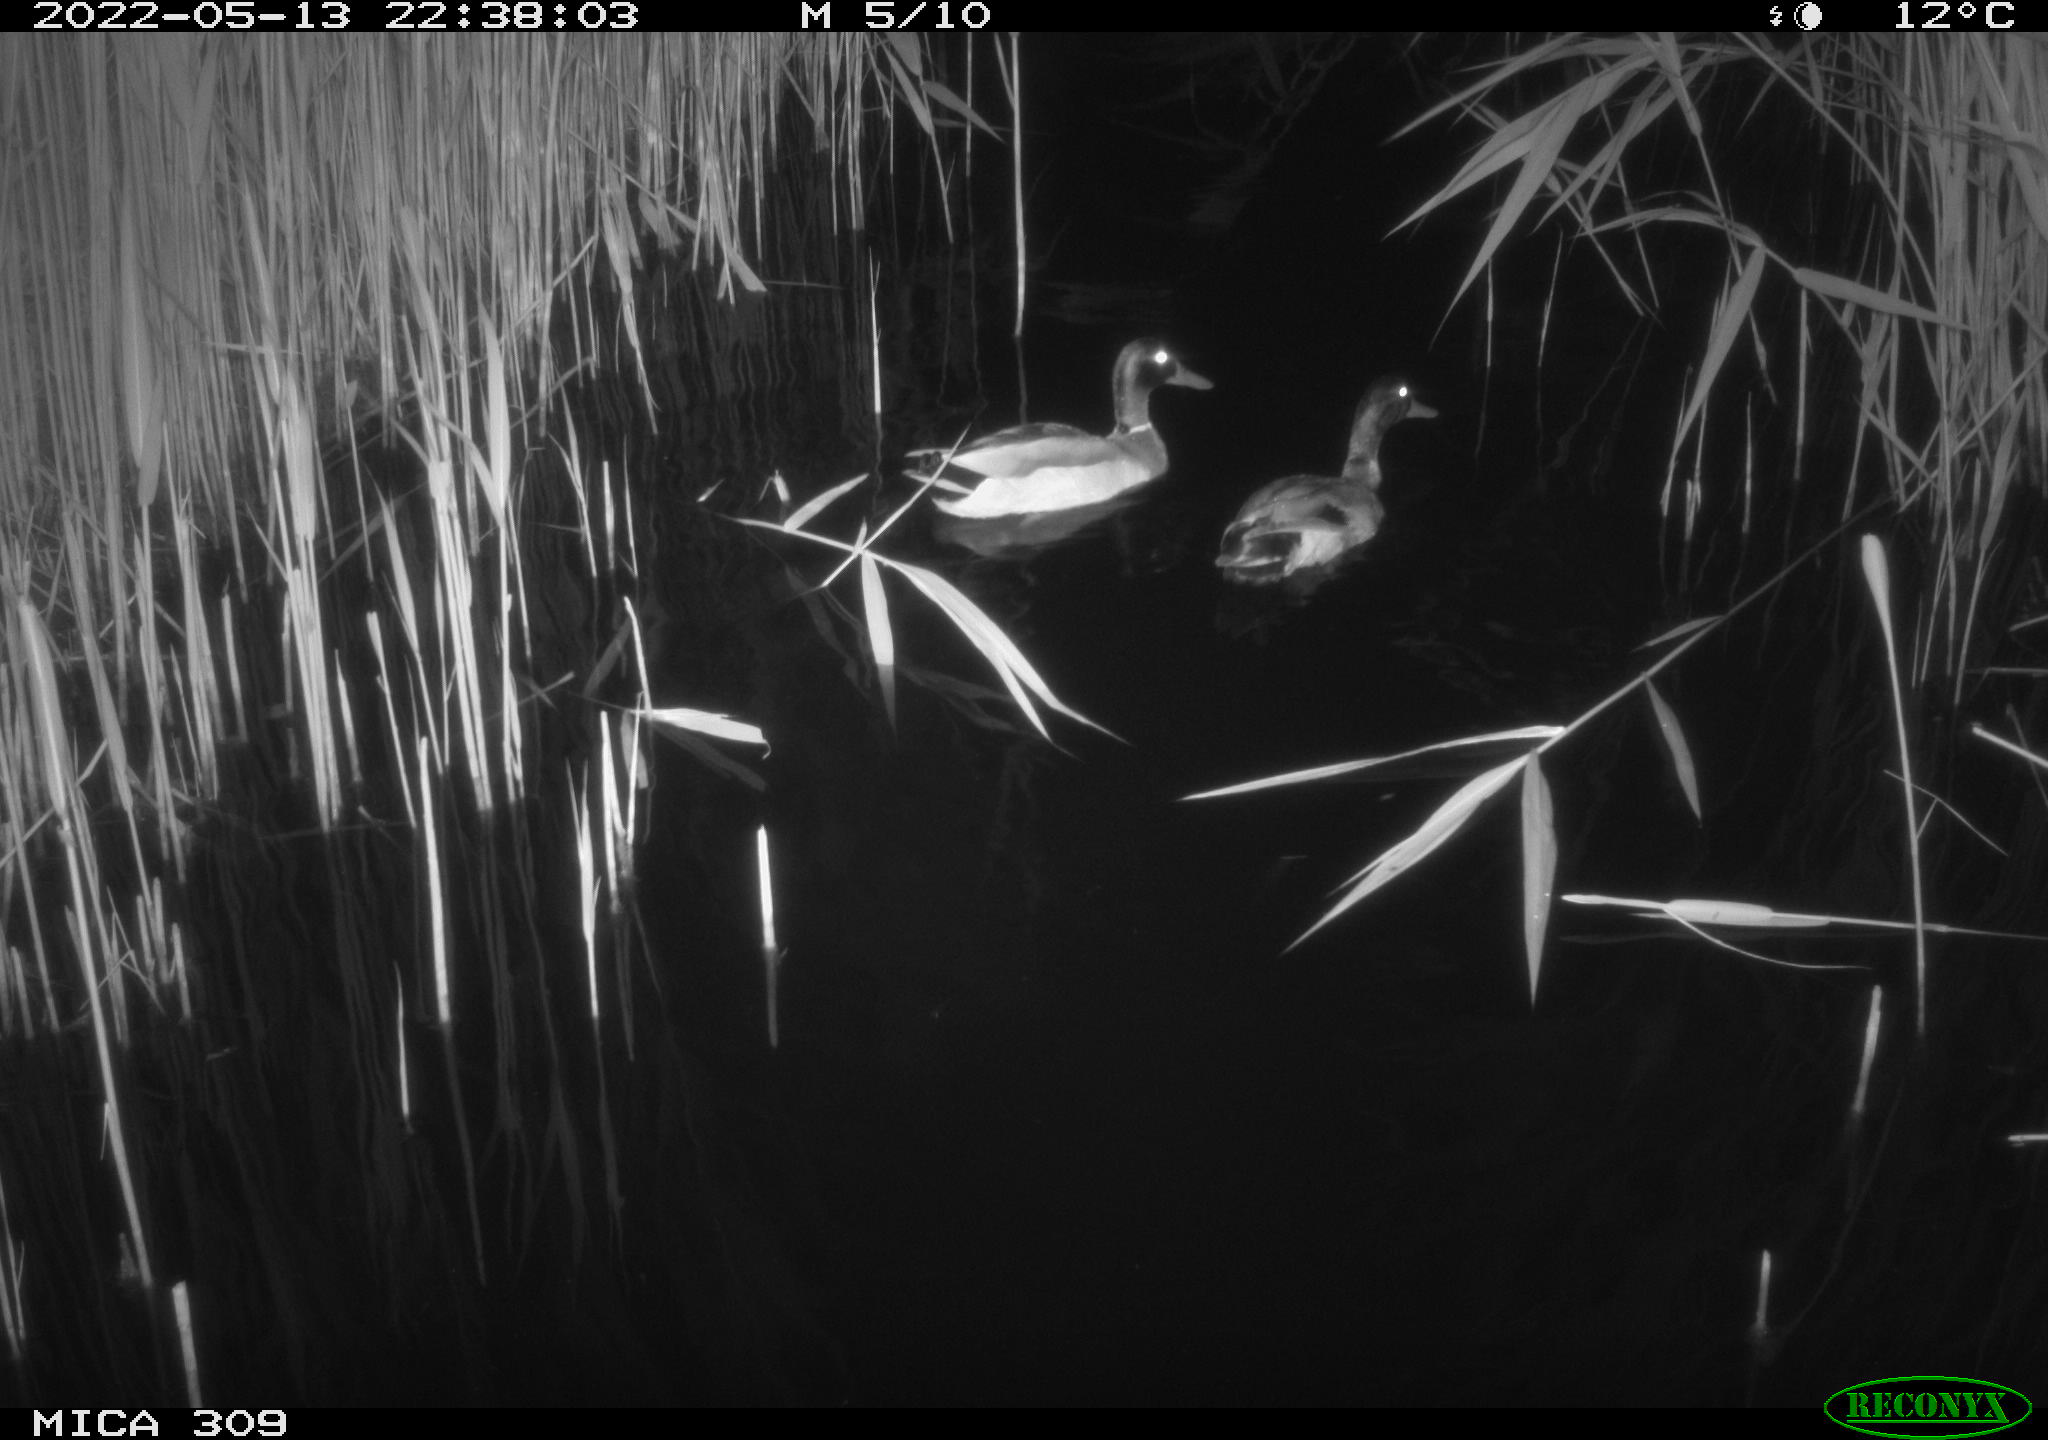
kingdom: Animalia
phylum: Chordata
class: Aves
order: Anseriformes
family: Anatidae
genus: Anas
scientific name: Anas platyrhynchos
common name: Mallard
